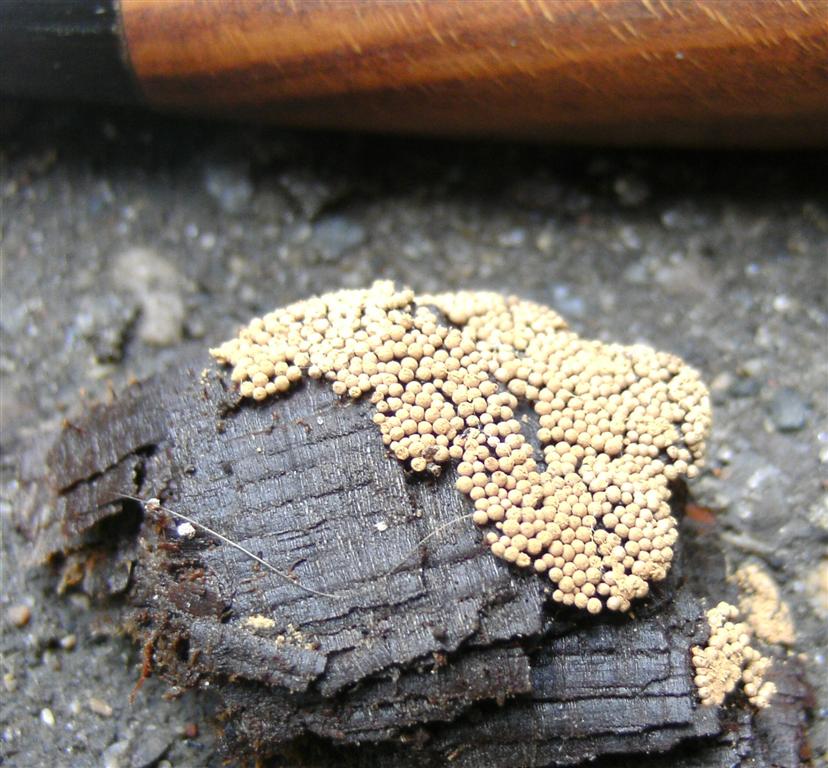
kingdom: Protozoa
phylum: Mycetozoa
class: Myxomycetes
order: Cribrariales
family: Cribrariaceae
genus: Cribraria
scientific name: Cribraria argillacea
